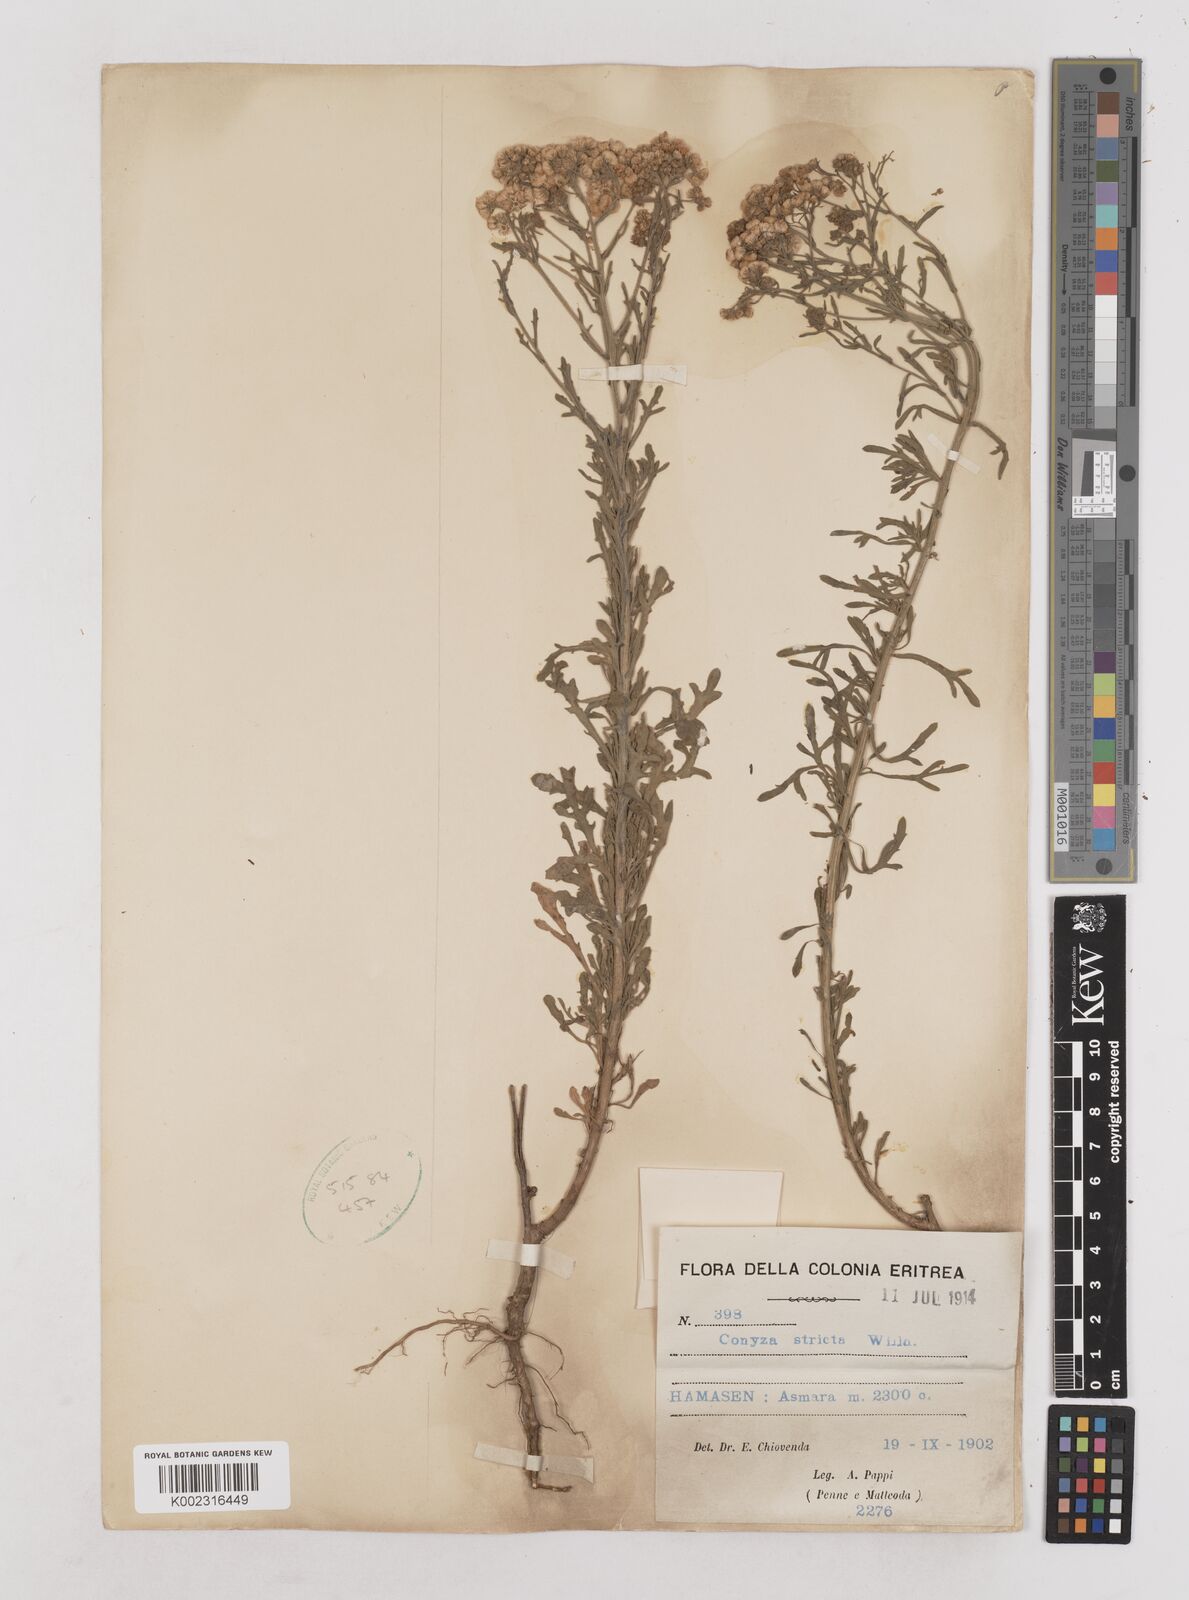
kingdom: Plantae
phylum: Tracheophyta
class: Magnoliopsida
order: Asterales
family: Asteraceae
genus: Nidorella
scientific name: Nidorella triloba
